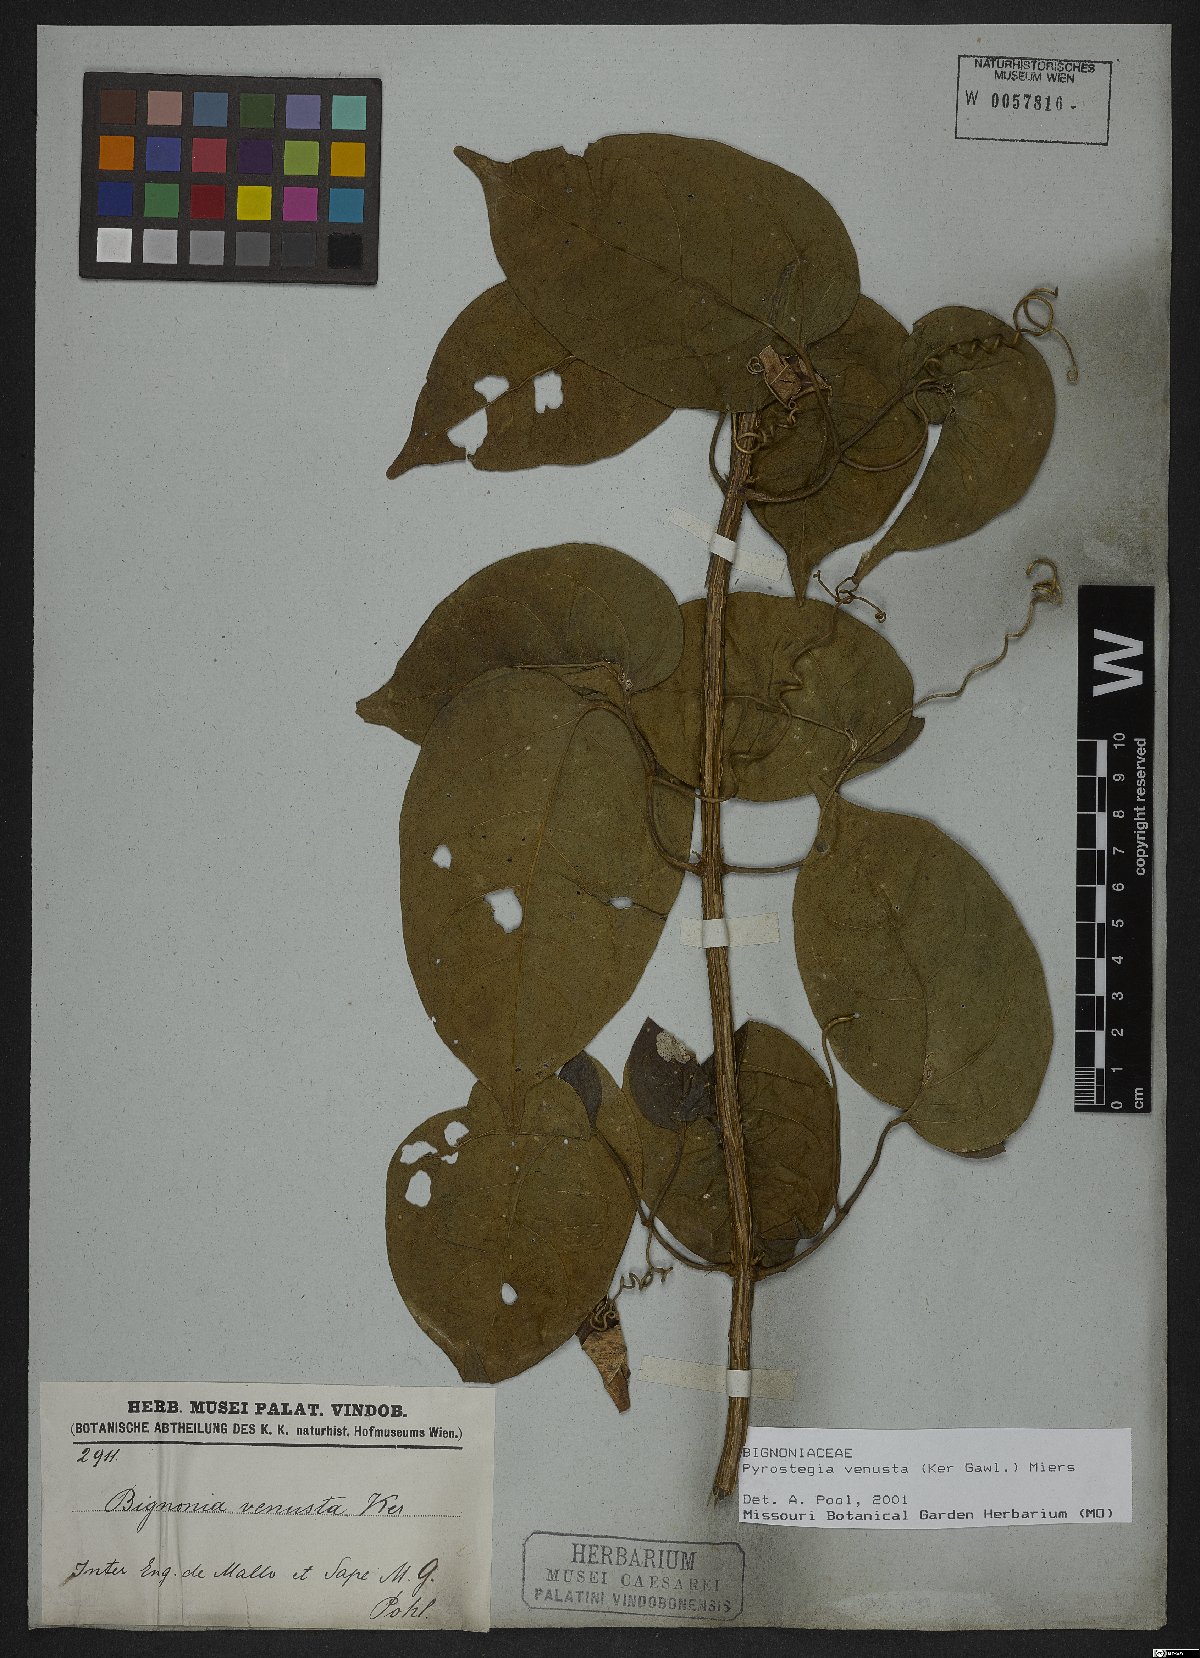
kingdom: Plantae
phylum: Tracheophyta
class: Magnoliopsida
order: Lamiales
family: Bignoniaceae
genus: Pyrostegia
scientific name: Pyrostegia venusta
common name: Flamevine
